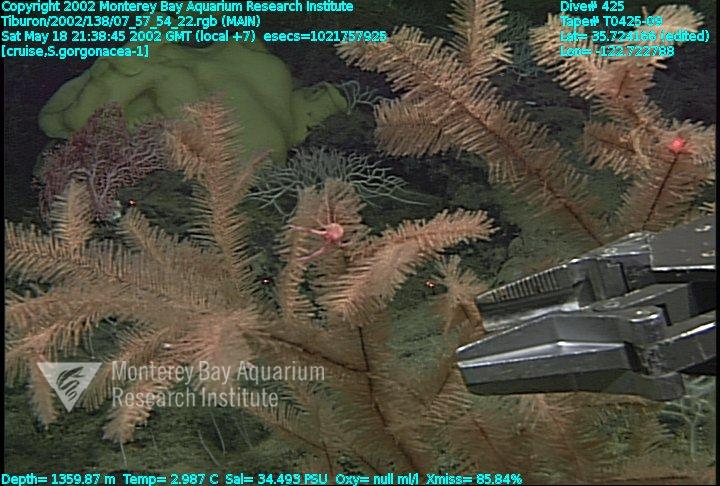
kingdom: Animalia
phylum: Porifera
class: Hexactinellida
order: Lyssacinosida
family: Rossellidae
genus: Staurocalyptus
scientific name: Staurocalyptus
